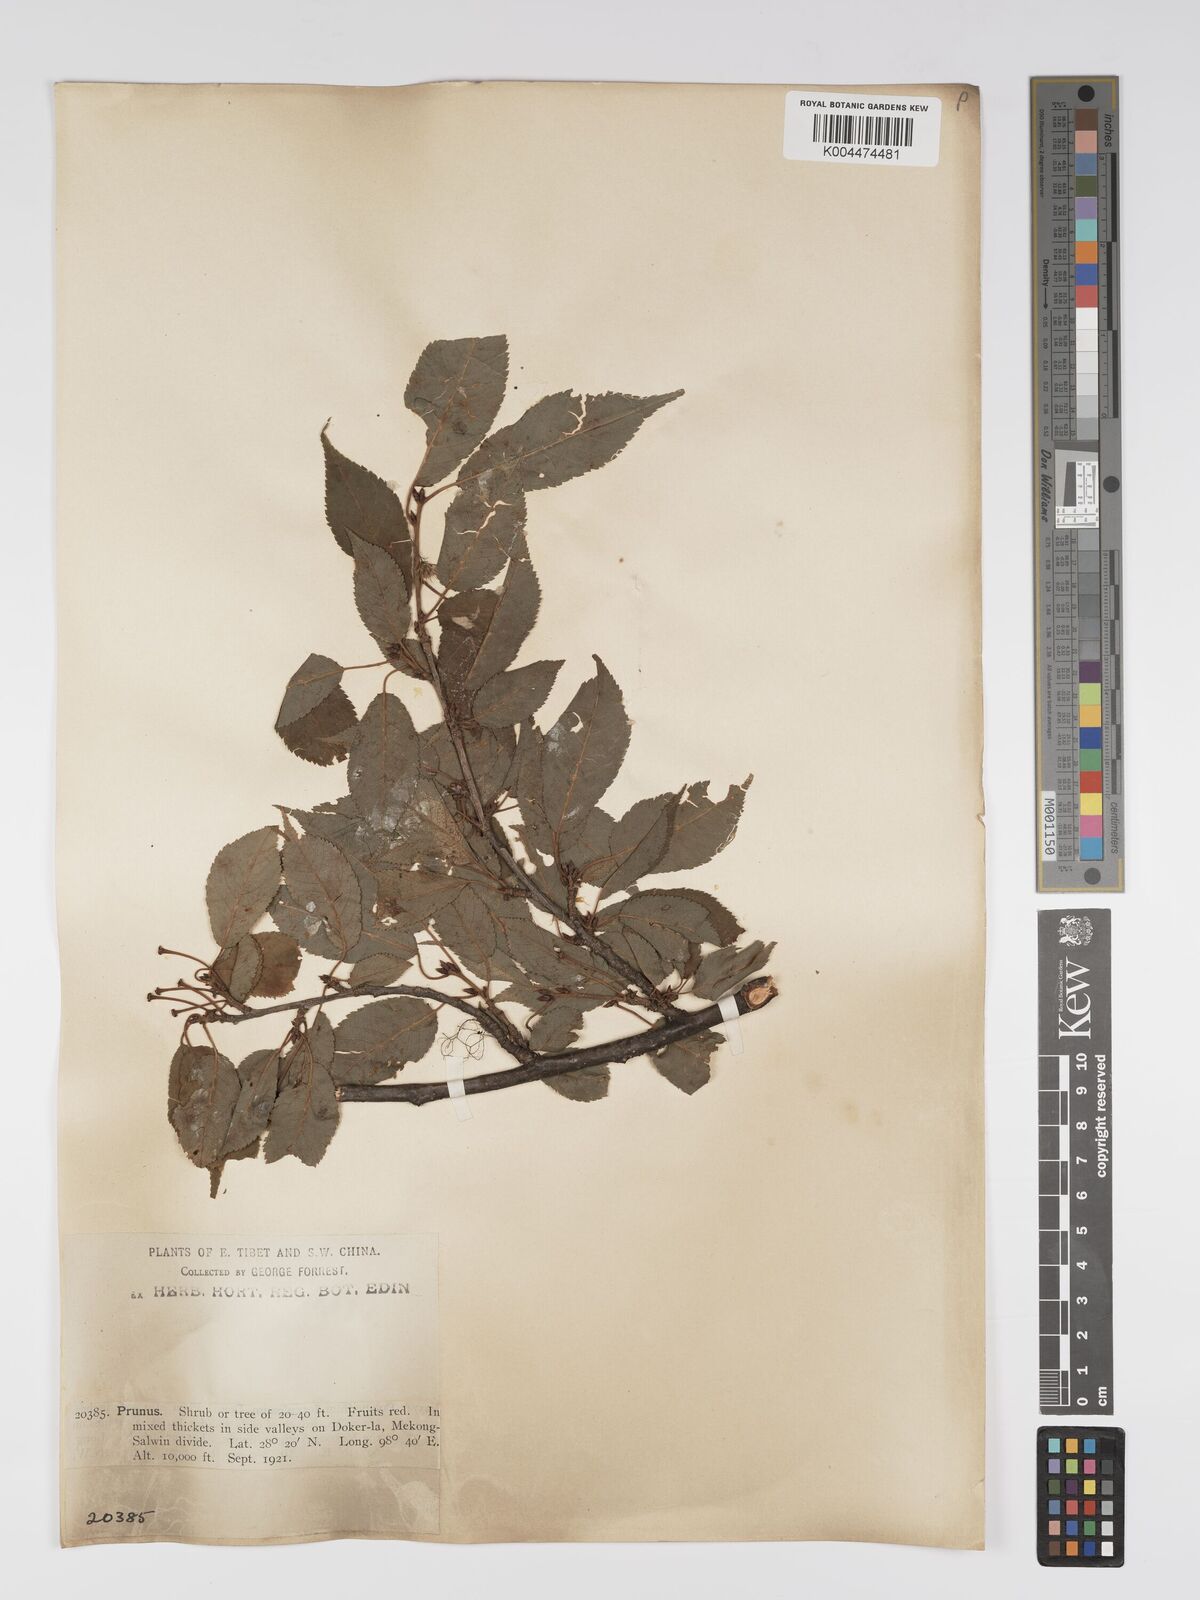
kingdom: Plantae
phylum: Tracheophyta
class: Magnoliopsida
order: Rosales
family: Rosaceae
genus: Prunus
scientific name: Prunus
